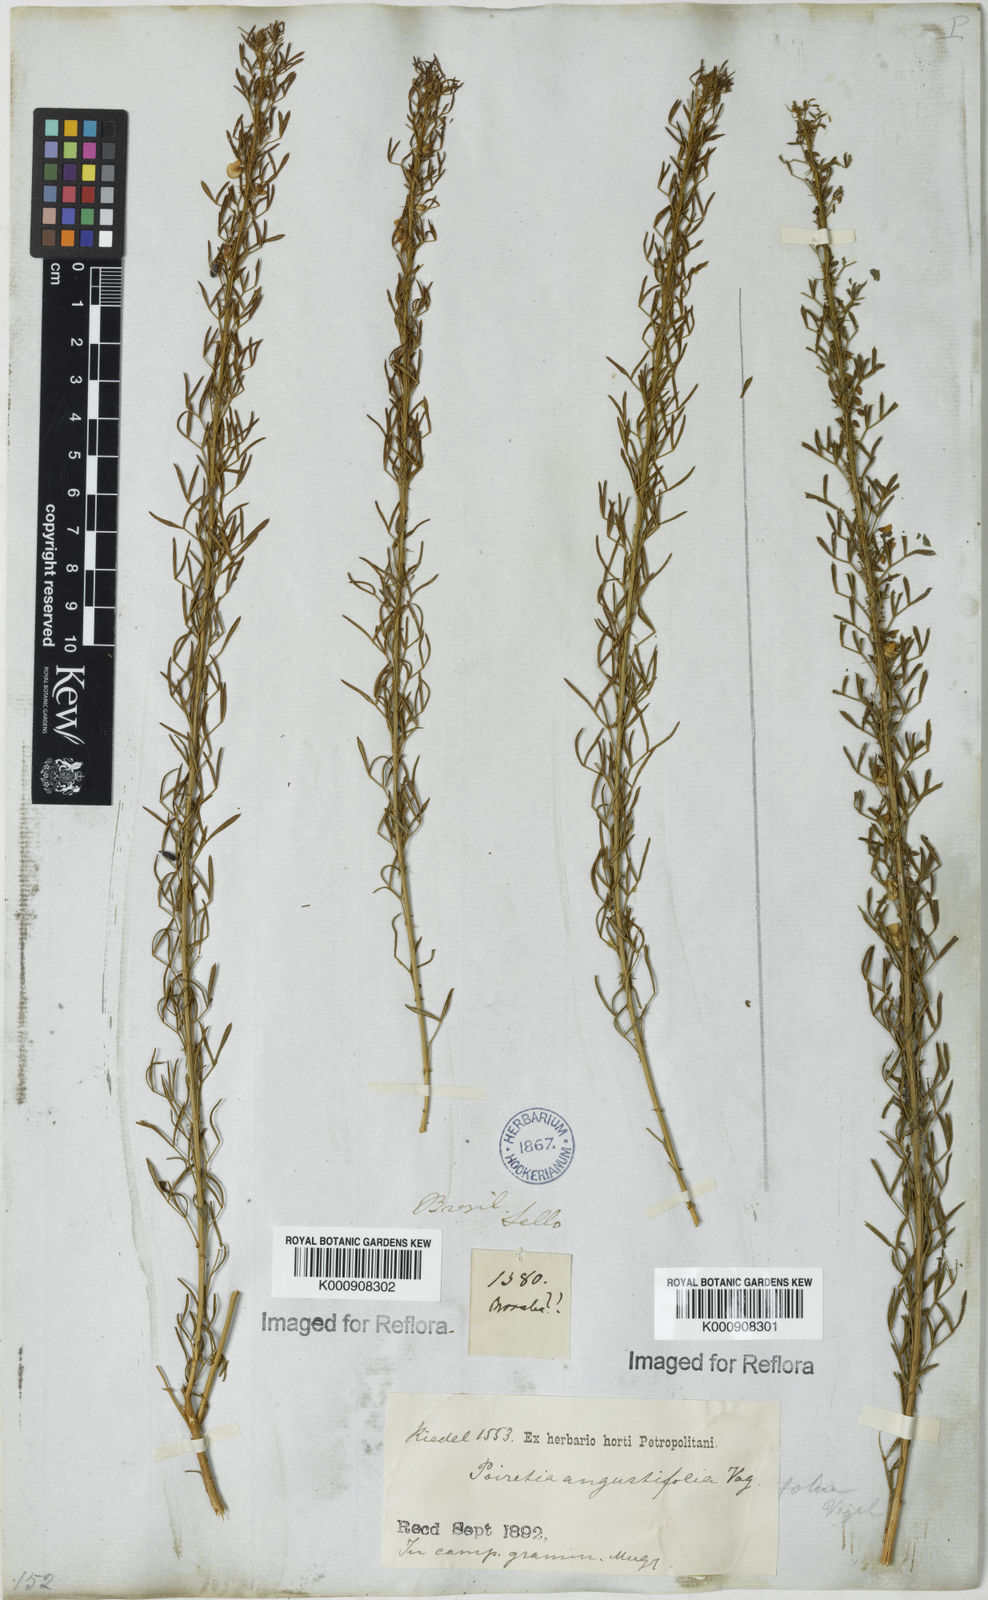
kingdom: Plantae
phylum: Tracheophyta
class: Magnoliopsida
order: Fabales
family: Fabaceae
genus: Poiretia
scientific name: Poiretia angustifolia
